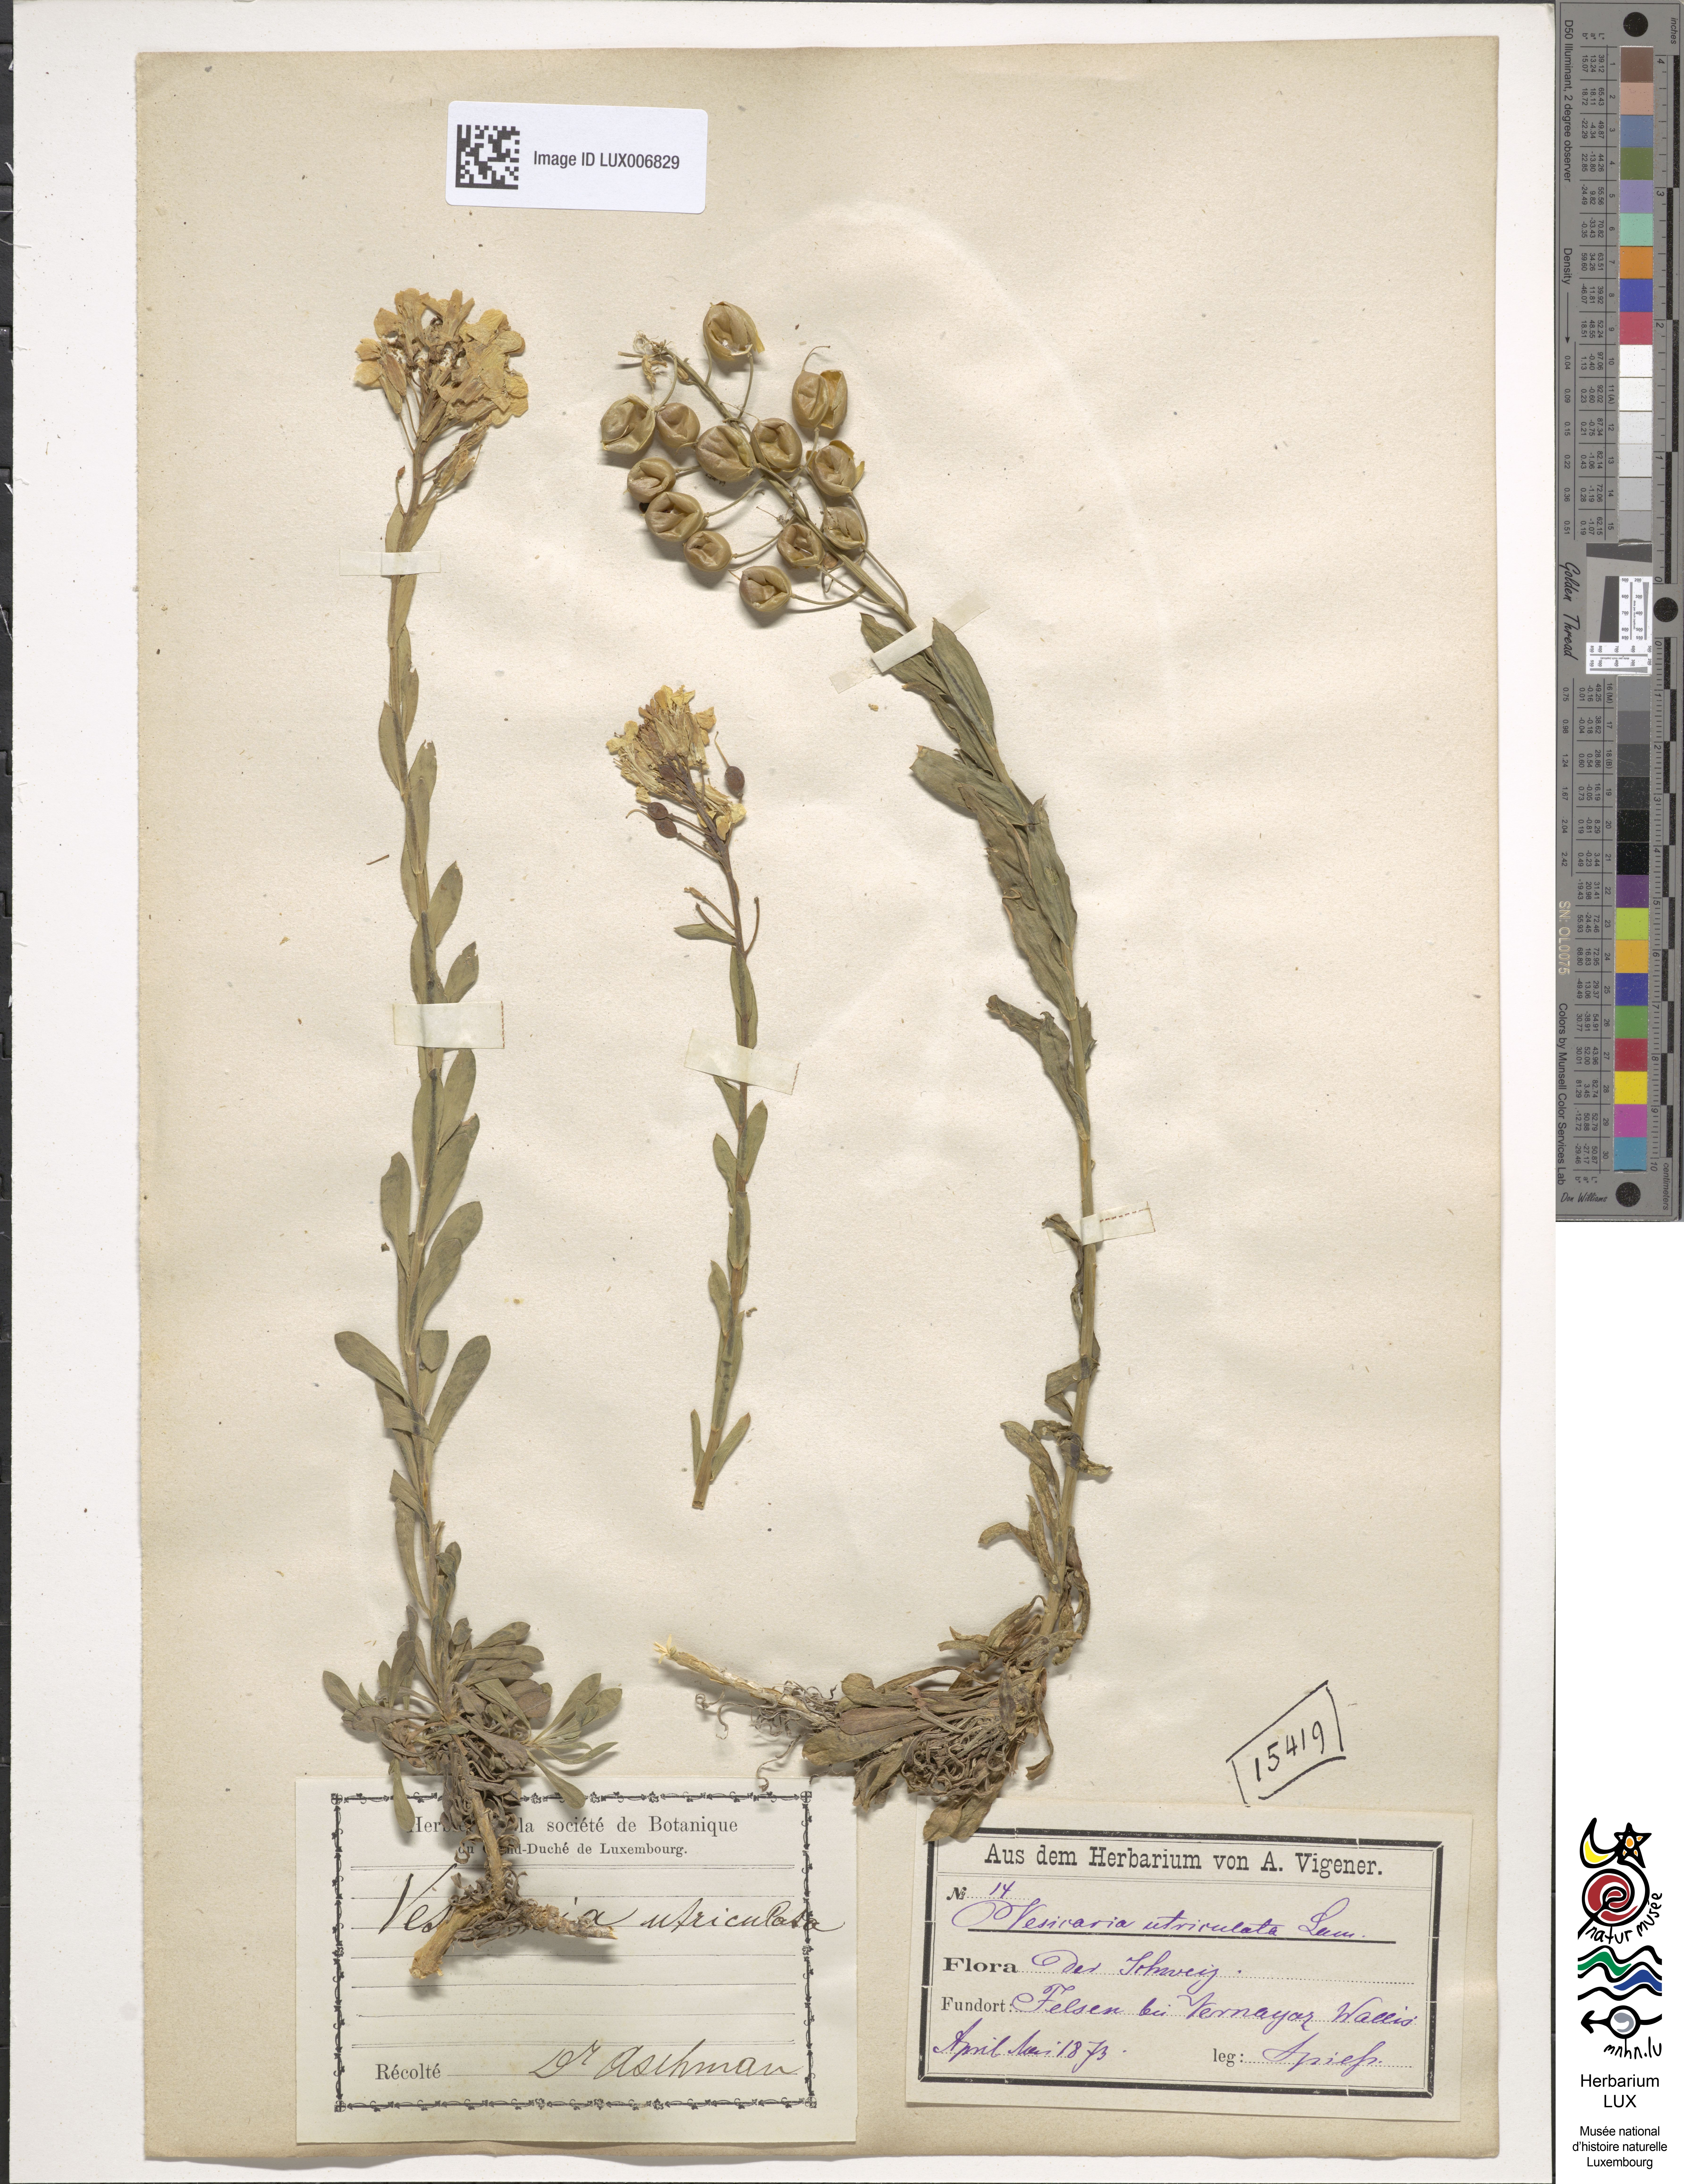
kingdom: Plantae
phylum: Tracheophyta
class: Magnoliopsida
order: Brassicales
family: Brassicaceae
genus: Alyssoides
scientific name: Alyssoides utriculata
